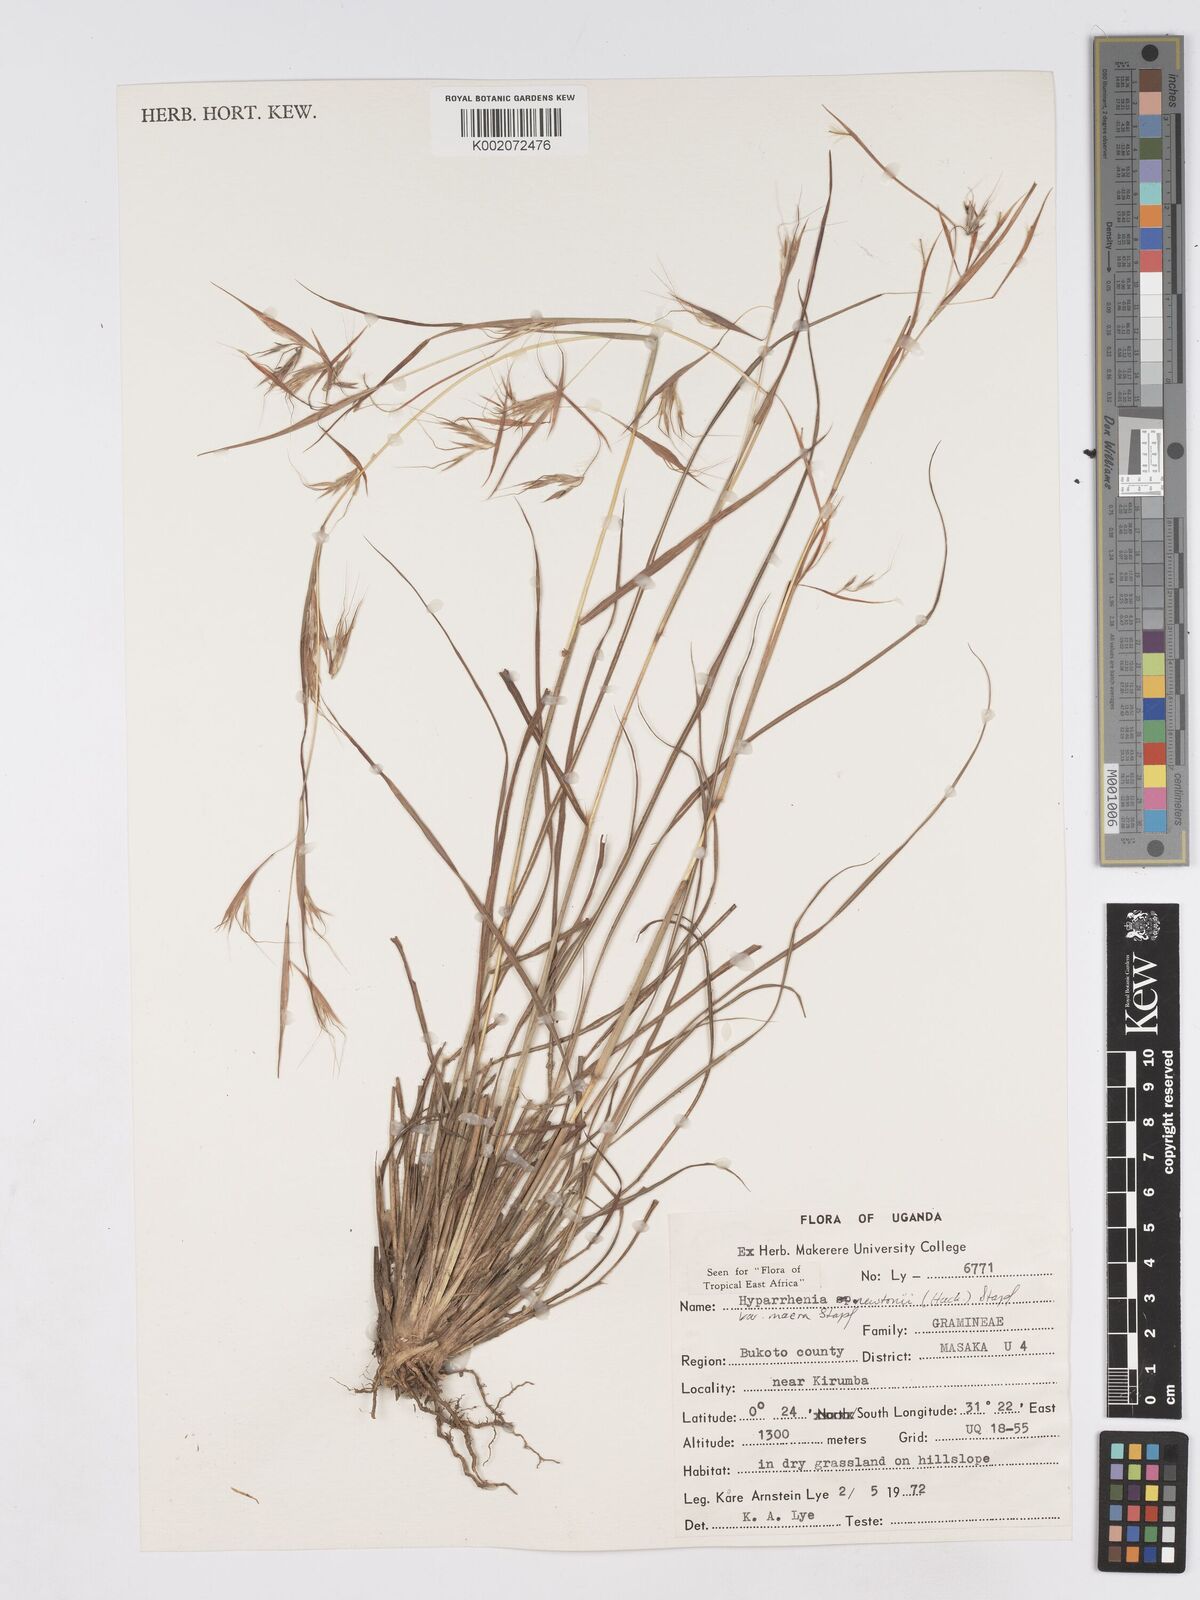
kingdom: Plantae
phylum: Tracheophyta
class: Liliopsida
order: Poales
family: Poaceae
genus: Hyparrhenia
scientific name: Hyparrhenia newtonii
